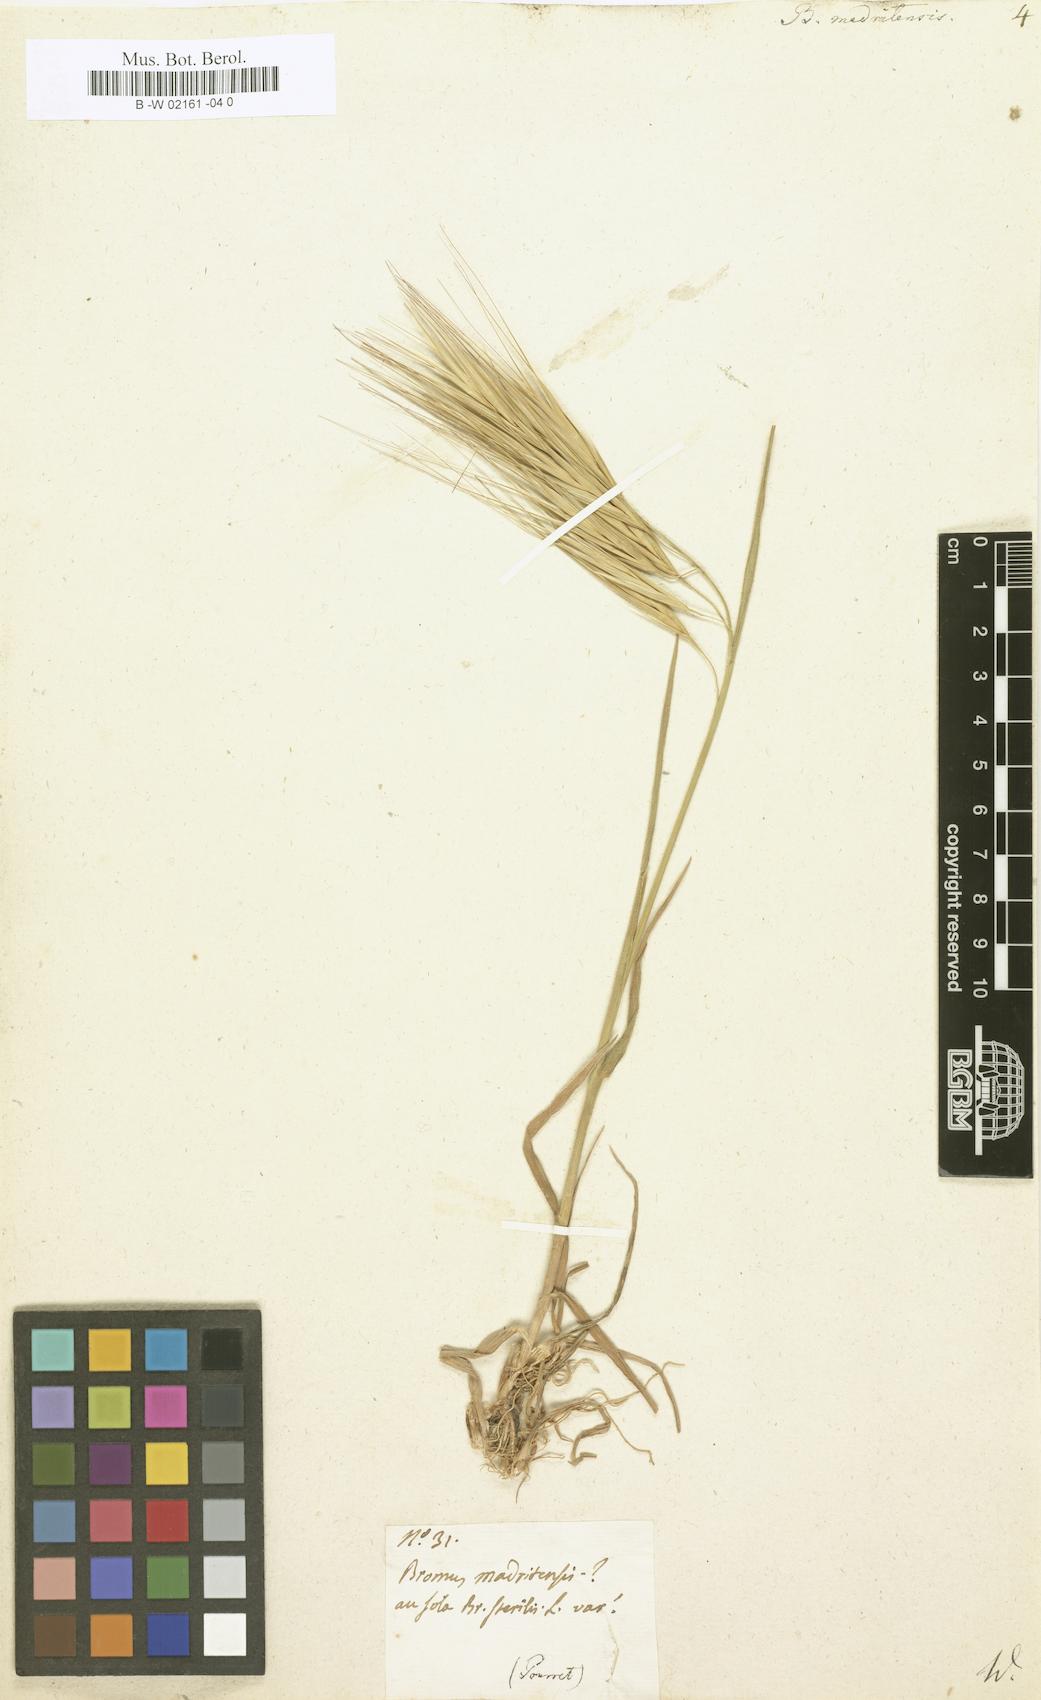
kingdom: Plantae
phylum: Tracheophyta
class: Liliopsida
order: Poales
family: Poaceae
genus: Bromus
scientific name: Bromus madritensis
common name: Compact brome
